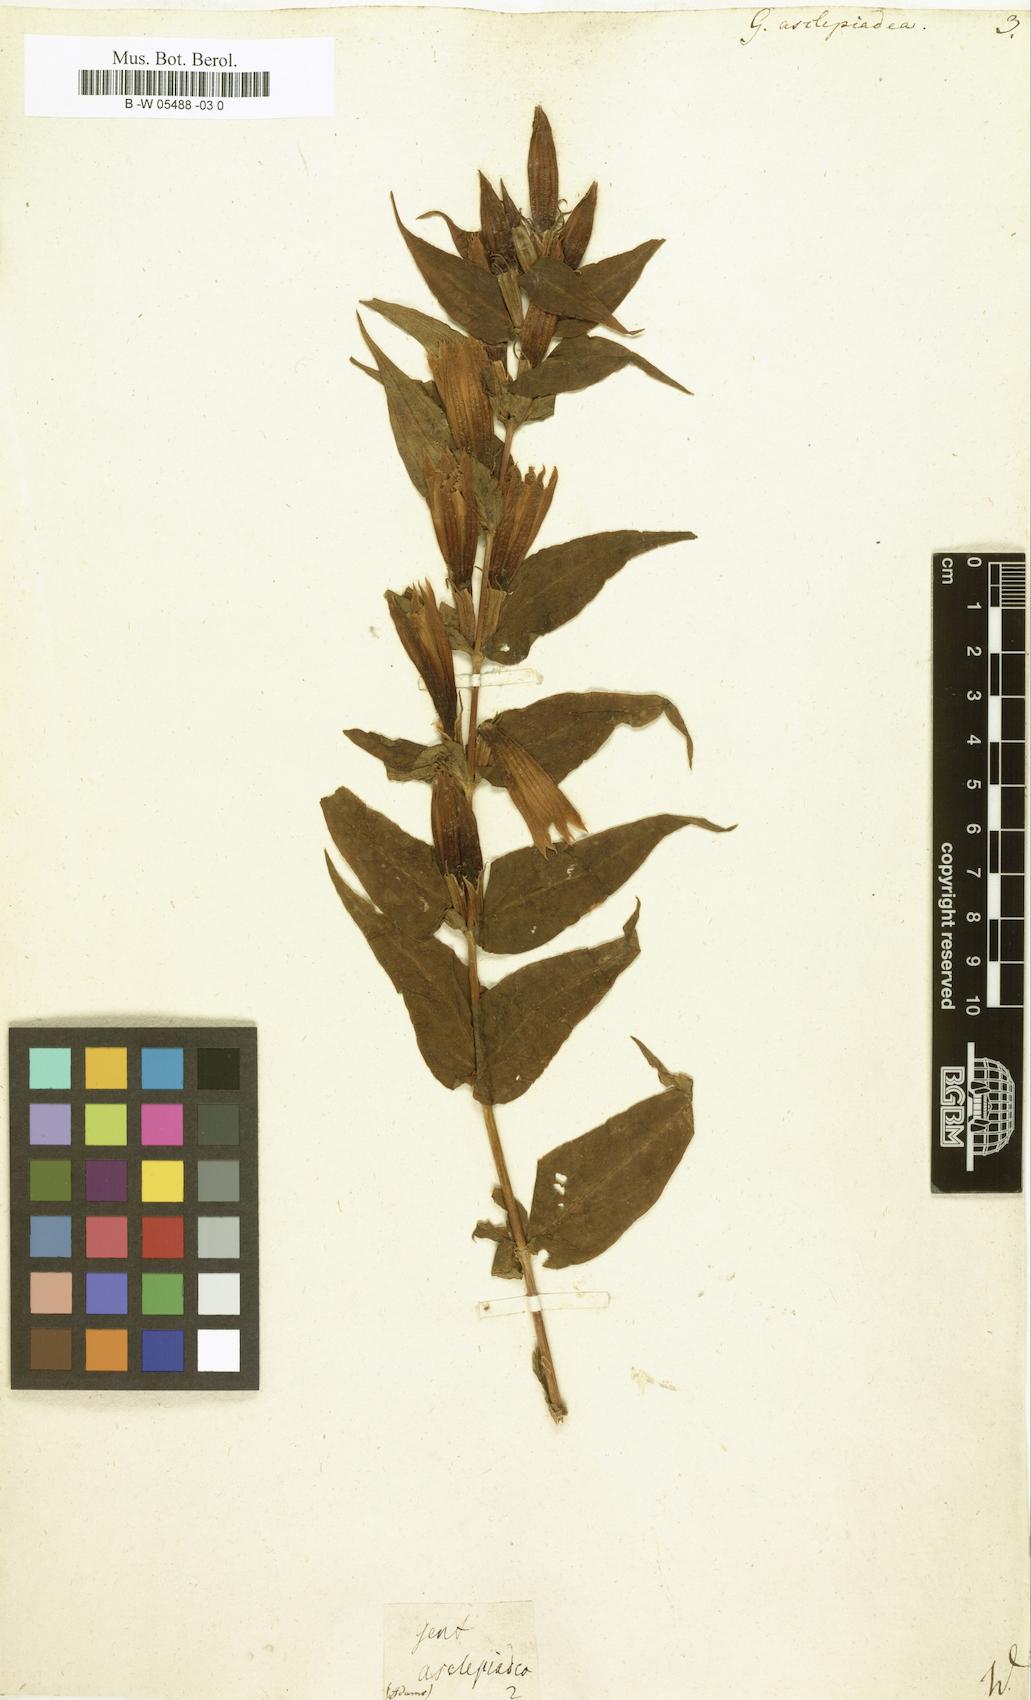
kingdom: Plantae
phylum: Tracheophyta
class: Magnoliopsida
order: Gentianales
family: Gentianaceae
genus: Gentiana
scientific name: Gentiana asclepiadea
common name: Willow gentian
